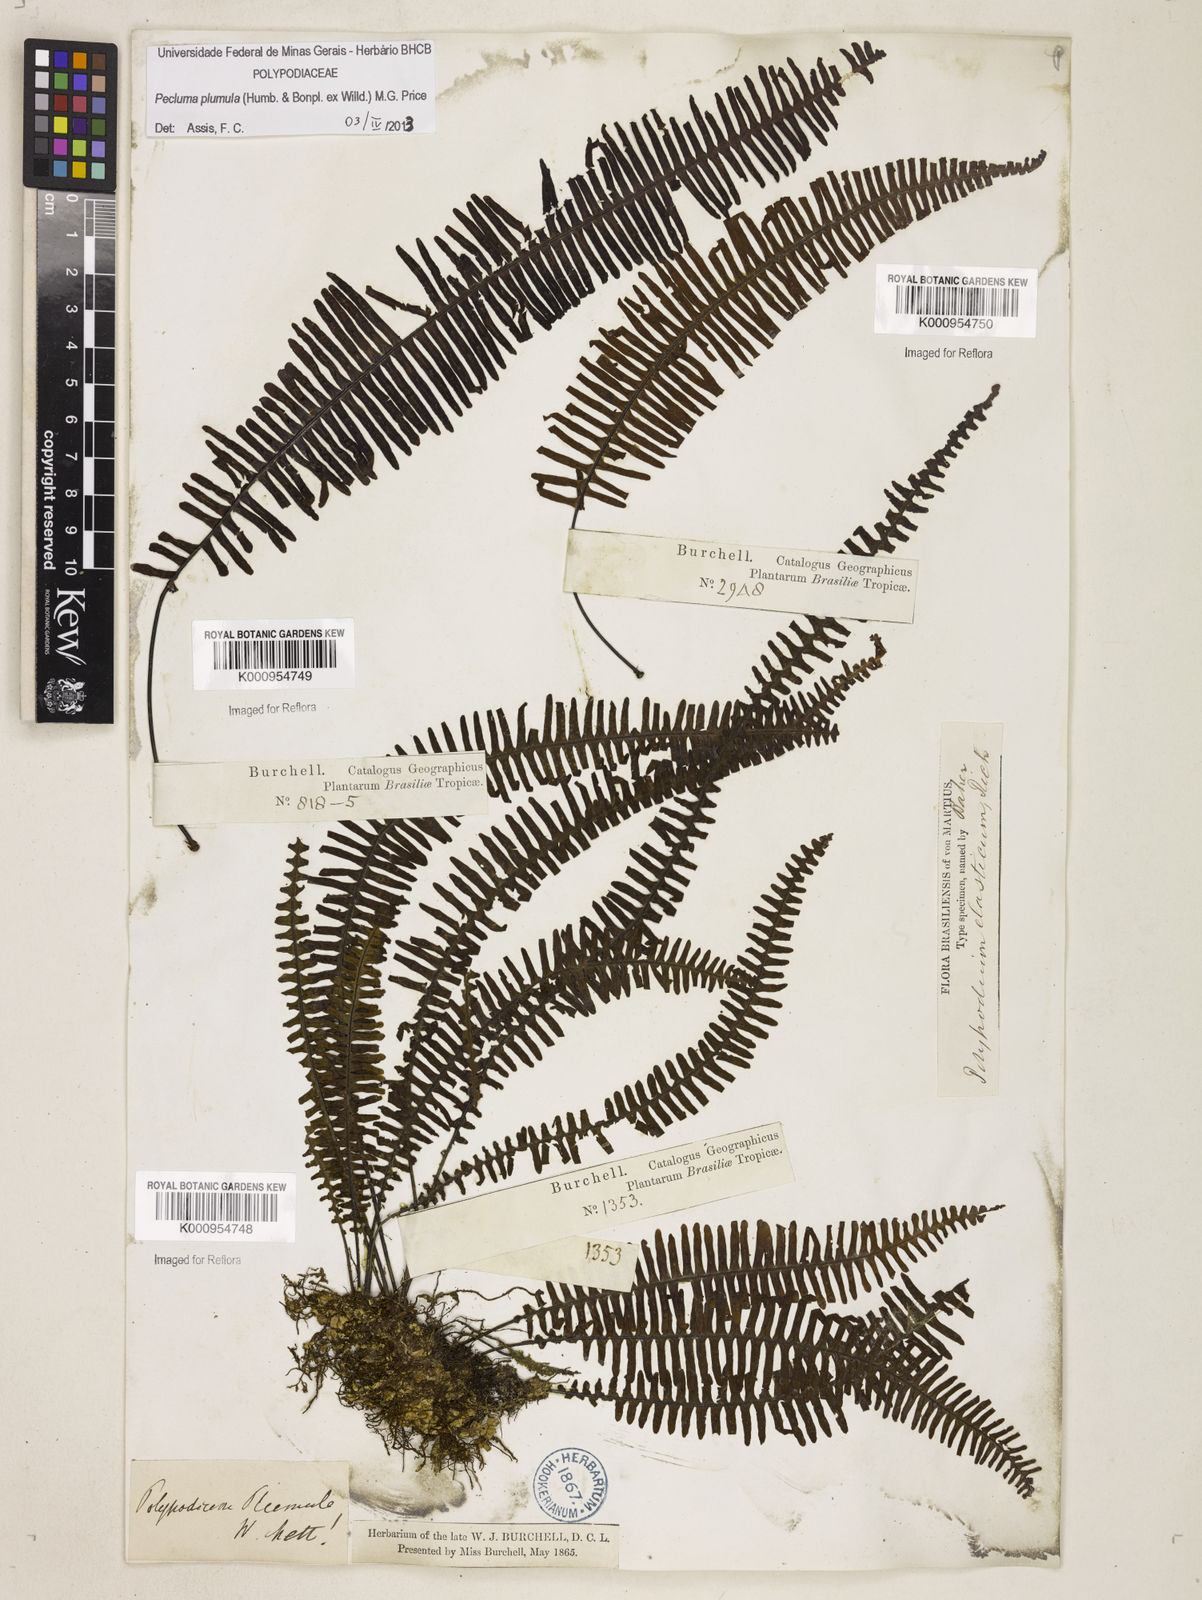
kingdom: Plantae
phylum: Tracheophyta
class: Polypodiopsida
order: Polypodiales
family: Polypodiaceae
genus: Pecluma
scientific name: Pecluma plumula
